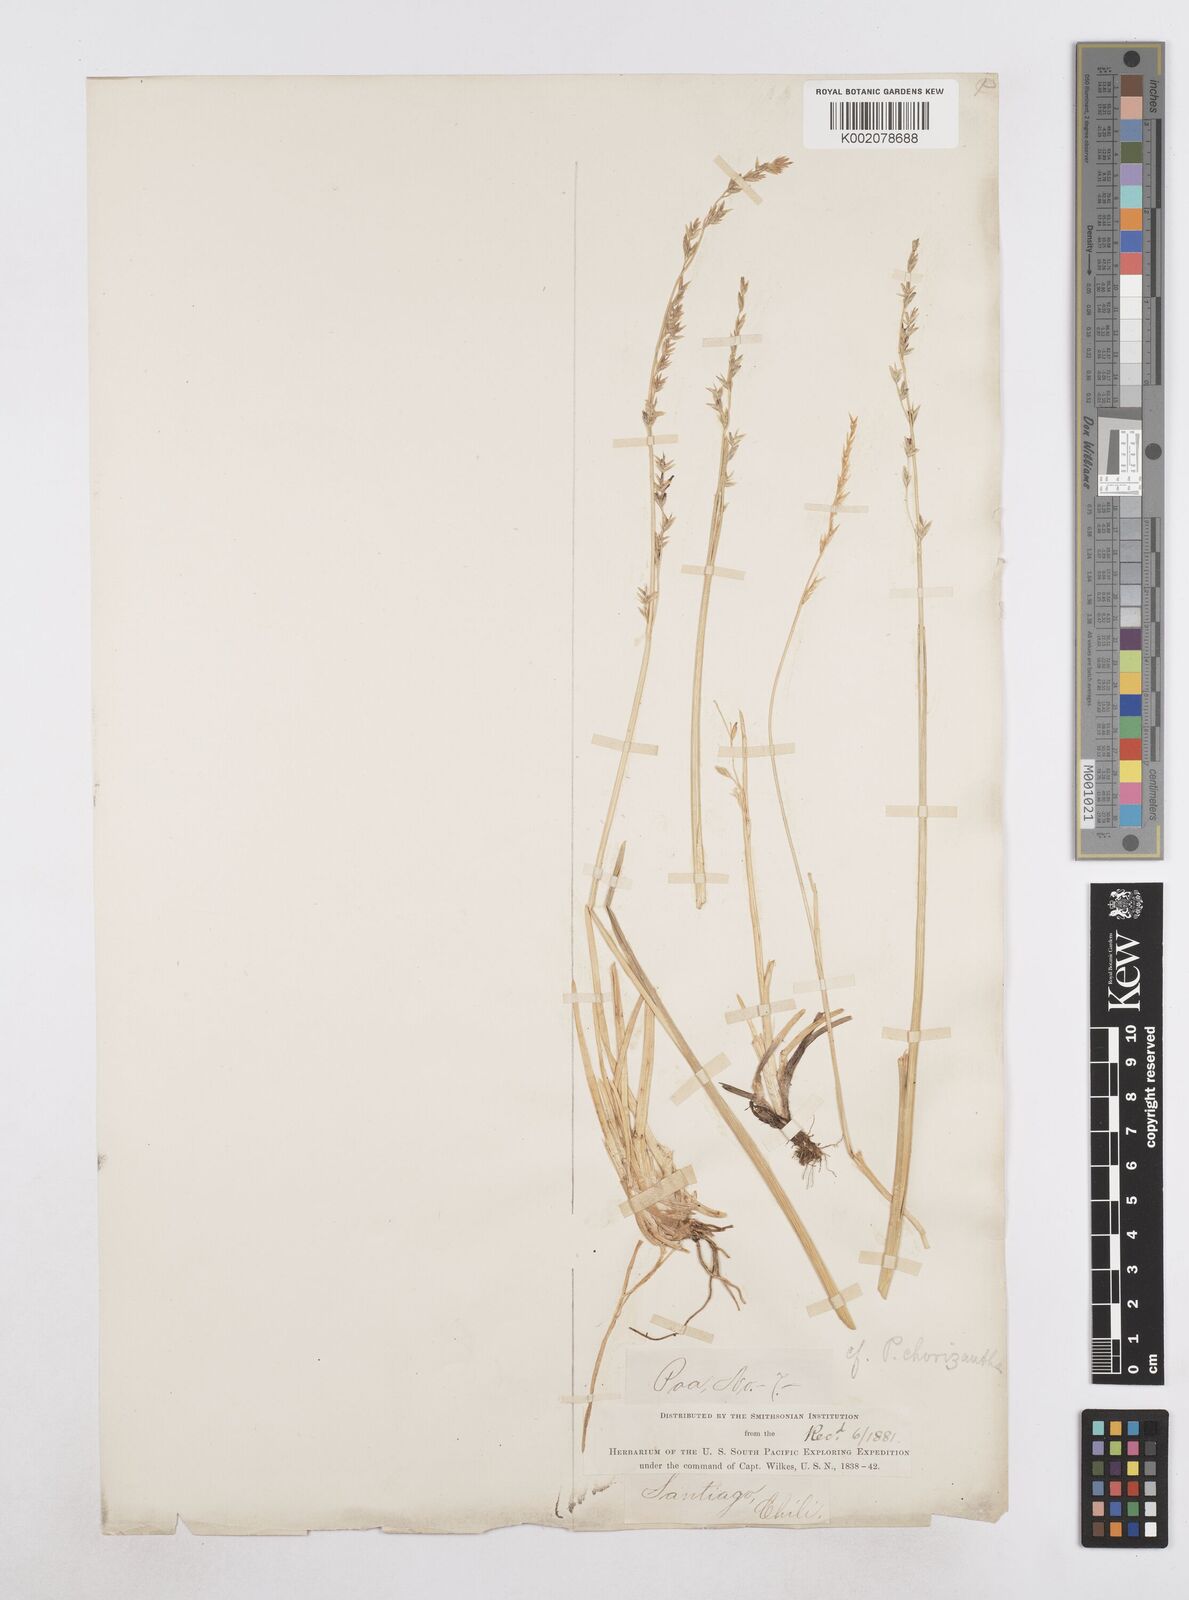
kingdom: Plantae
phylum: Tracheophyta
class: Liliopsida
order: Poales
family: Poaceae
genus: Poa
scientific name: Poa stenantha
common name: Narrow-flowered bluegrass
